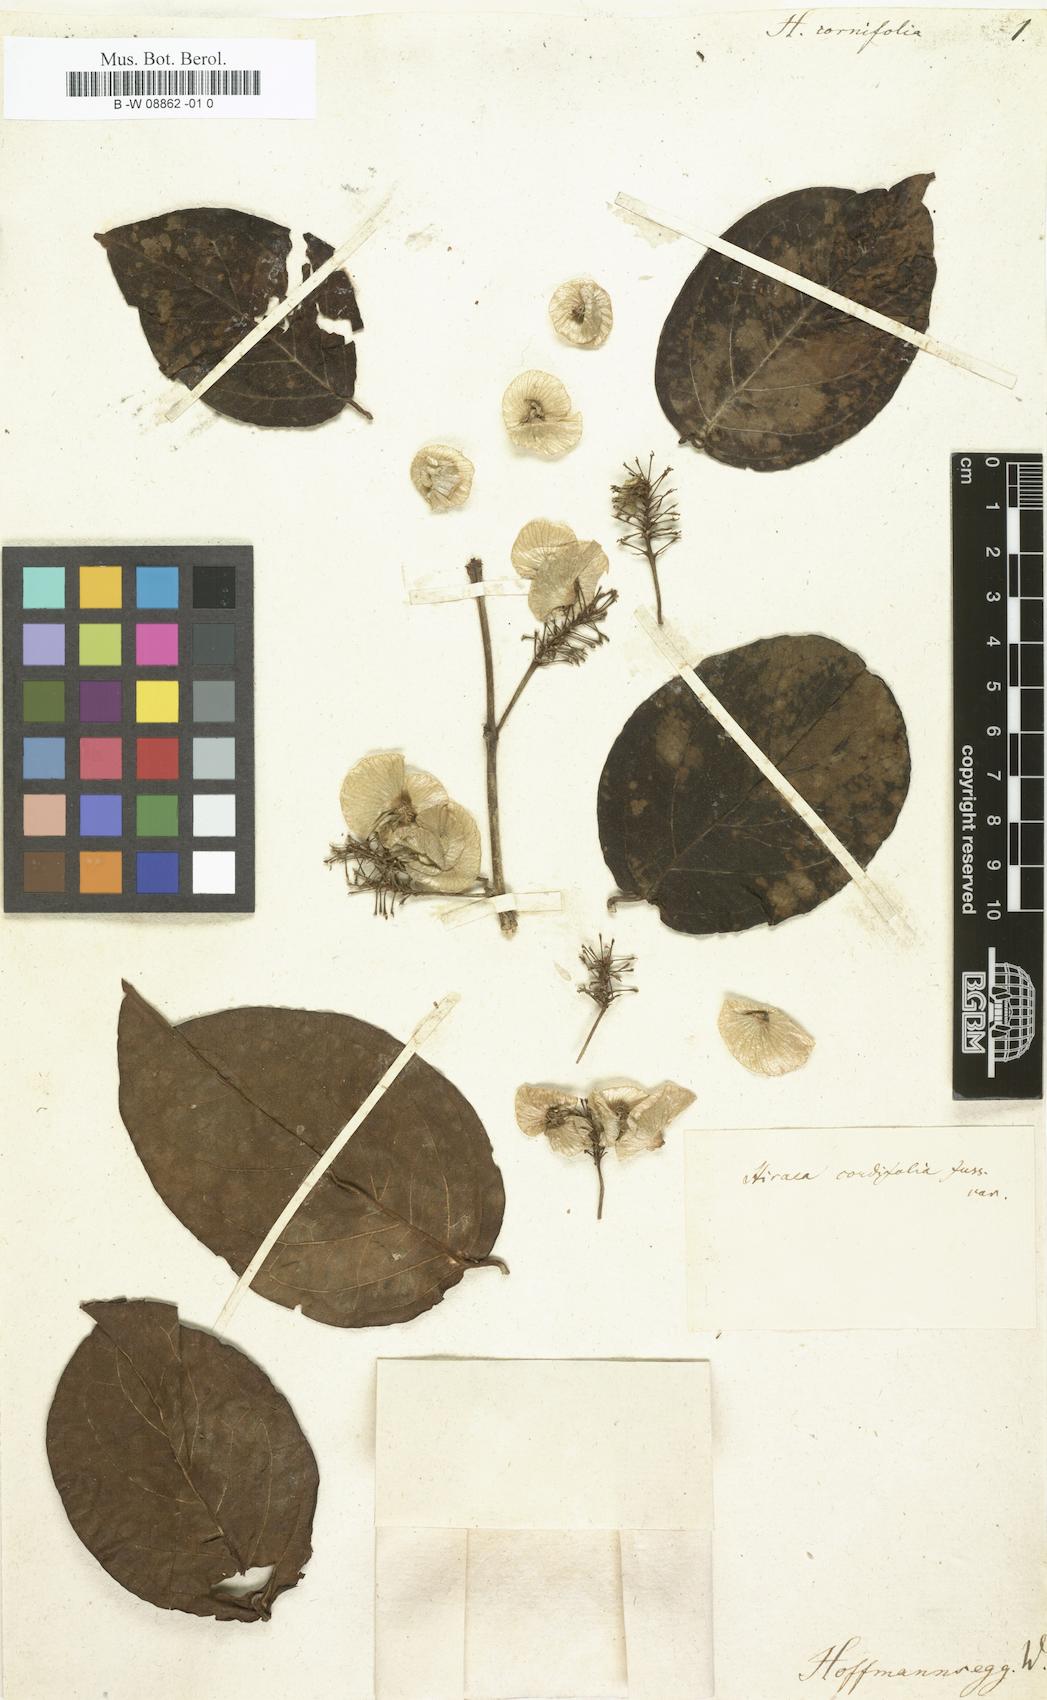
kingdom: Plantae
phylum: Tracheophyta
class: Magnoliopsida
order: Malpighiales
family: Malpighiaceae
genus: Mascagnia
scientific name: Mascagnia cordifolia
